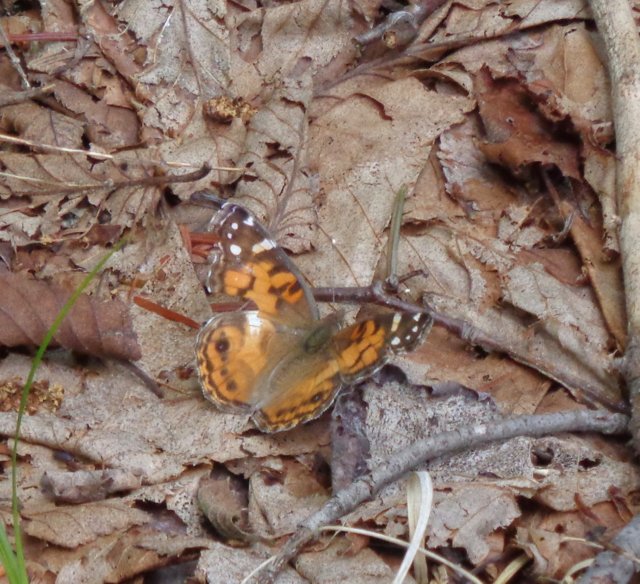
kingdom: Animalia
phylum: Arthropoda
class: Insecta
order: Lepidoptera
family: Nymphalidae
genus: Vanessa
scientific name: Vanessa virginiensis
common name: American Lady
